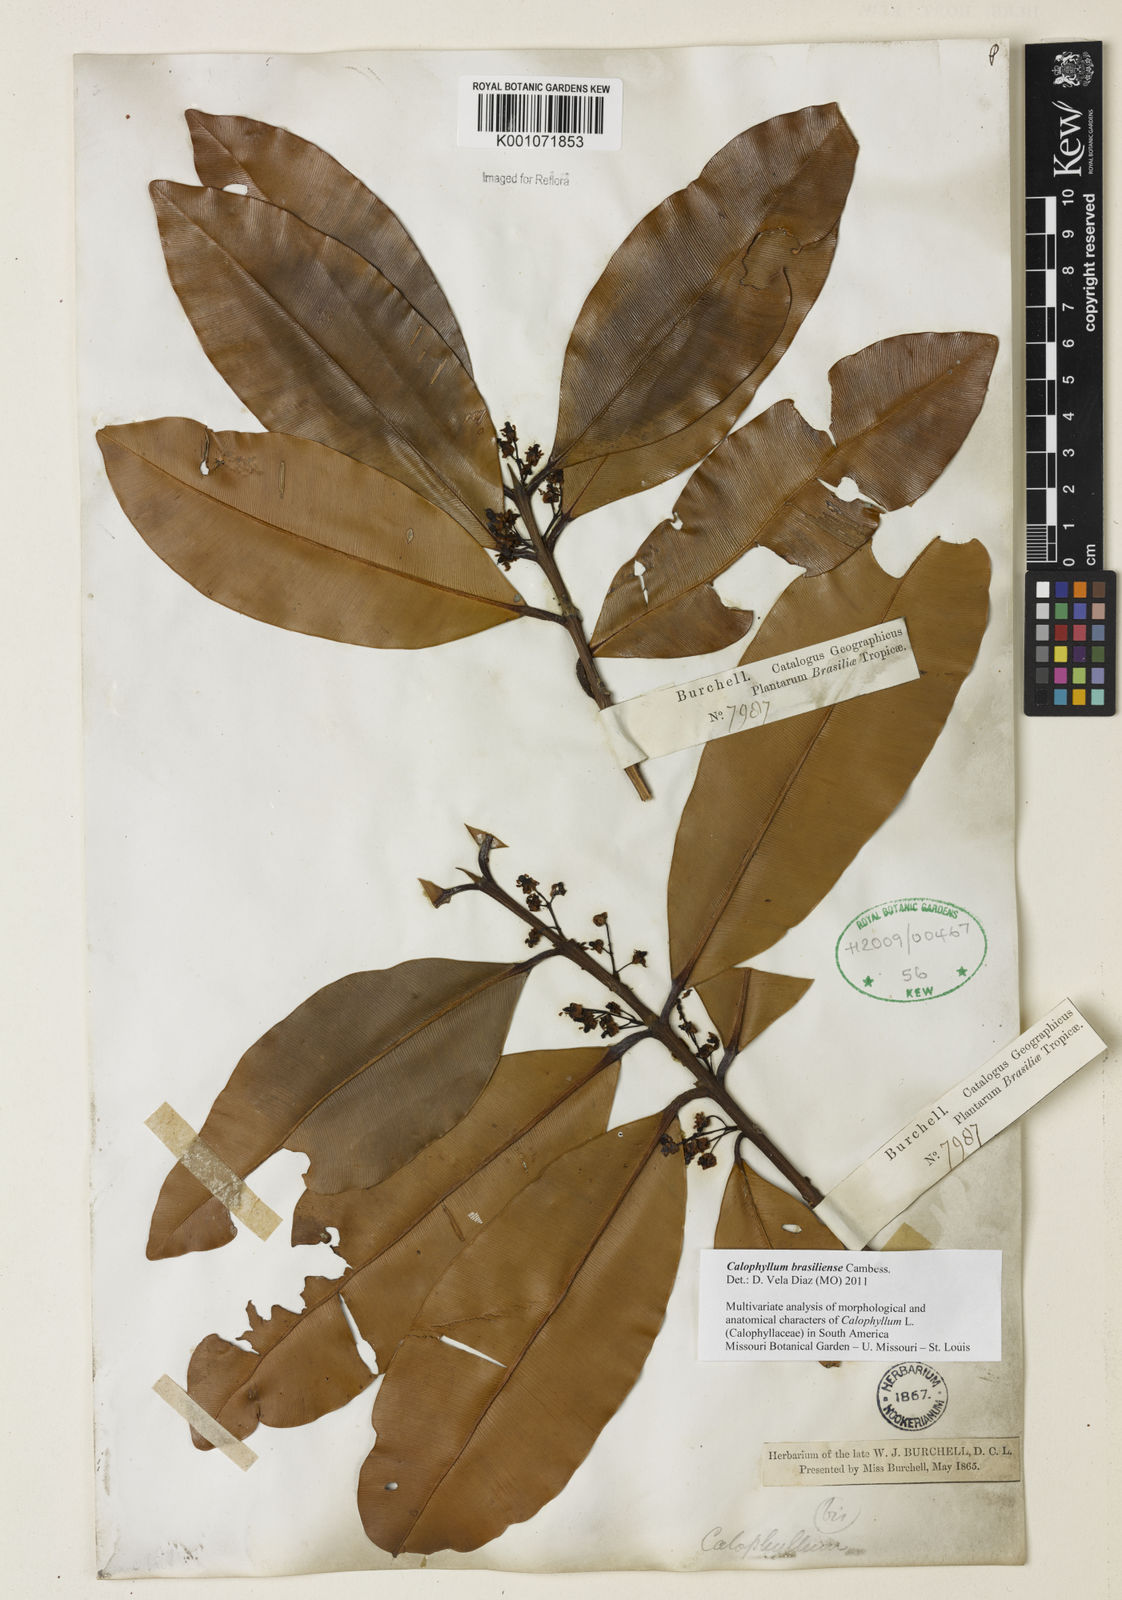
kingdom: Plantae
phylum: Tracheophyta
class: Magnoliopsida
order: Malpighiales
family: Calophyllaceae
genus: Calophyllum
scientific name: Calophyllum brasiliense
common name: Santa maria
